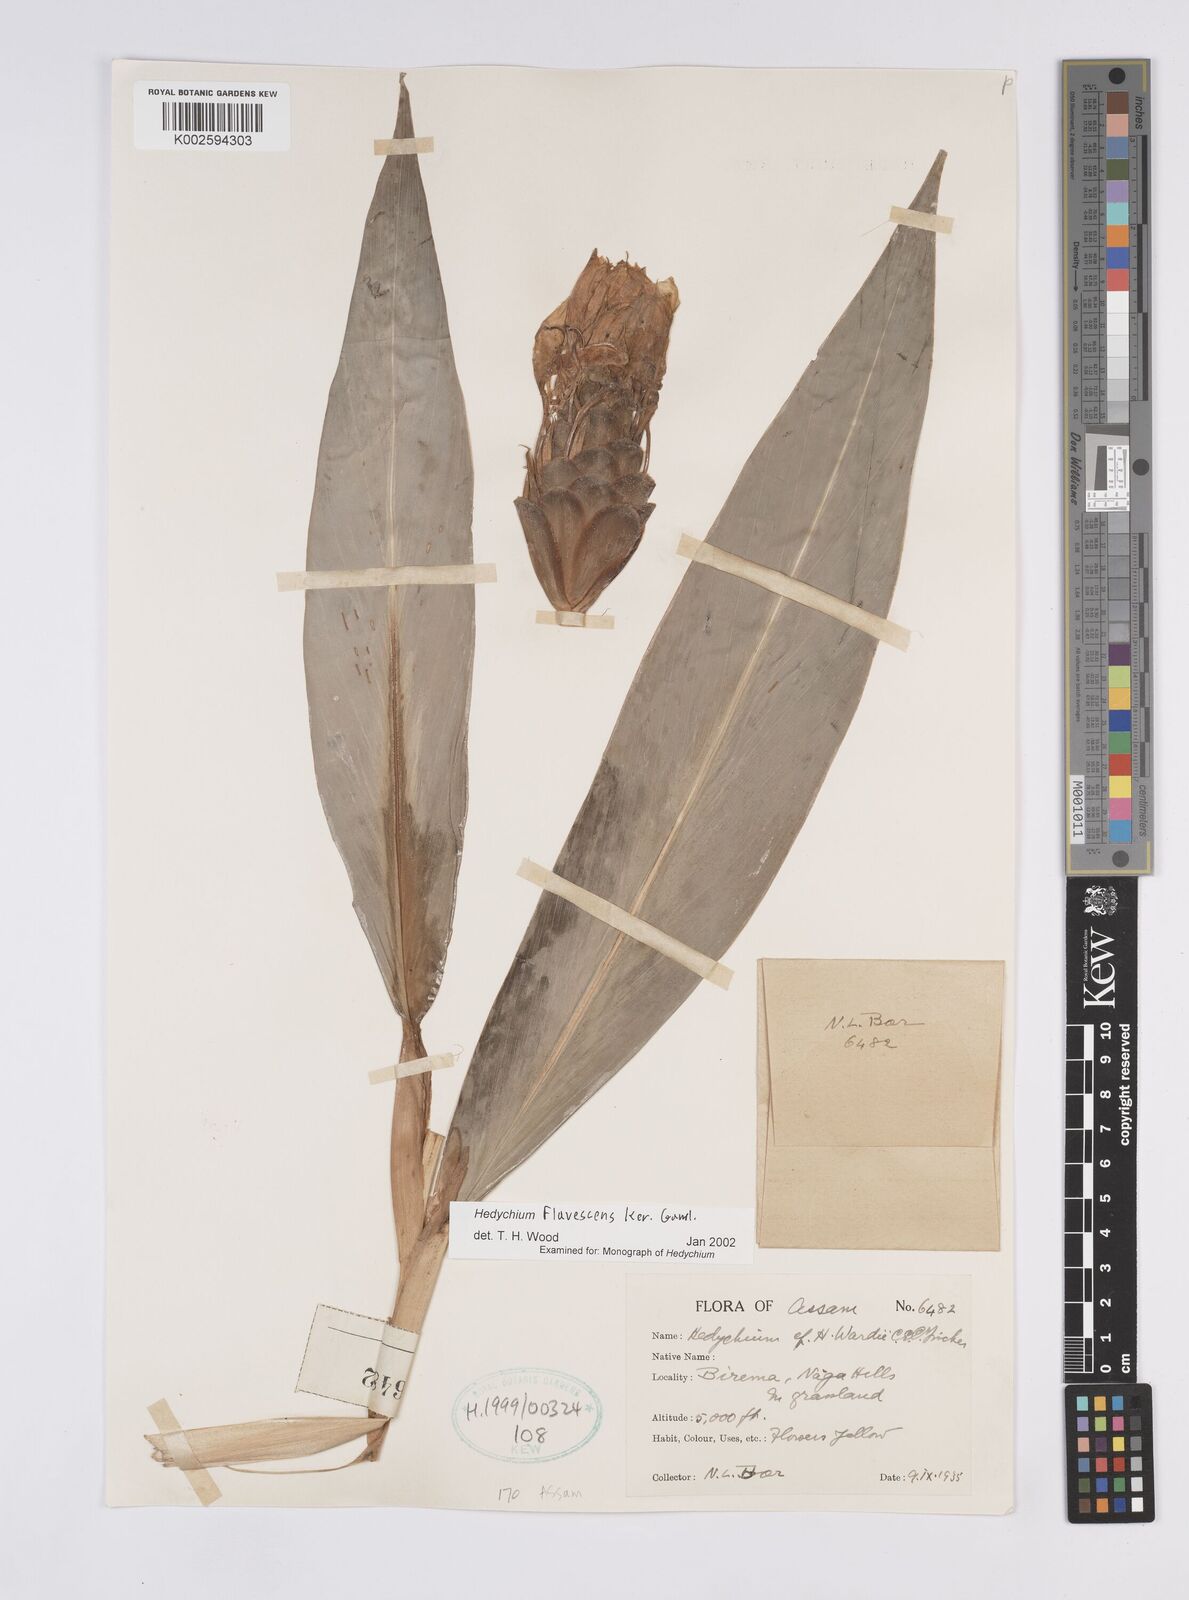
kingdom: Plantae
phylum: Tracheophyta
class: Liliopsida
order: Zingiberales
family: Zingiberaceae
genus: Hedychium
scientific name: Hedychium flavescens
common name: Yellow ginger
